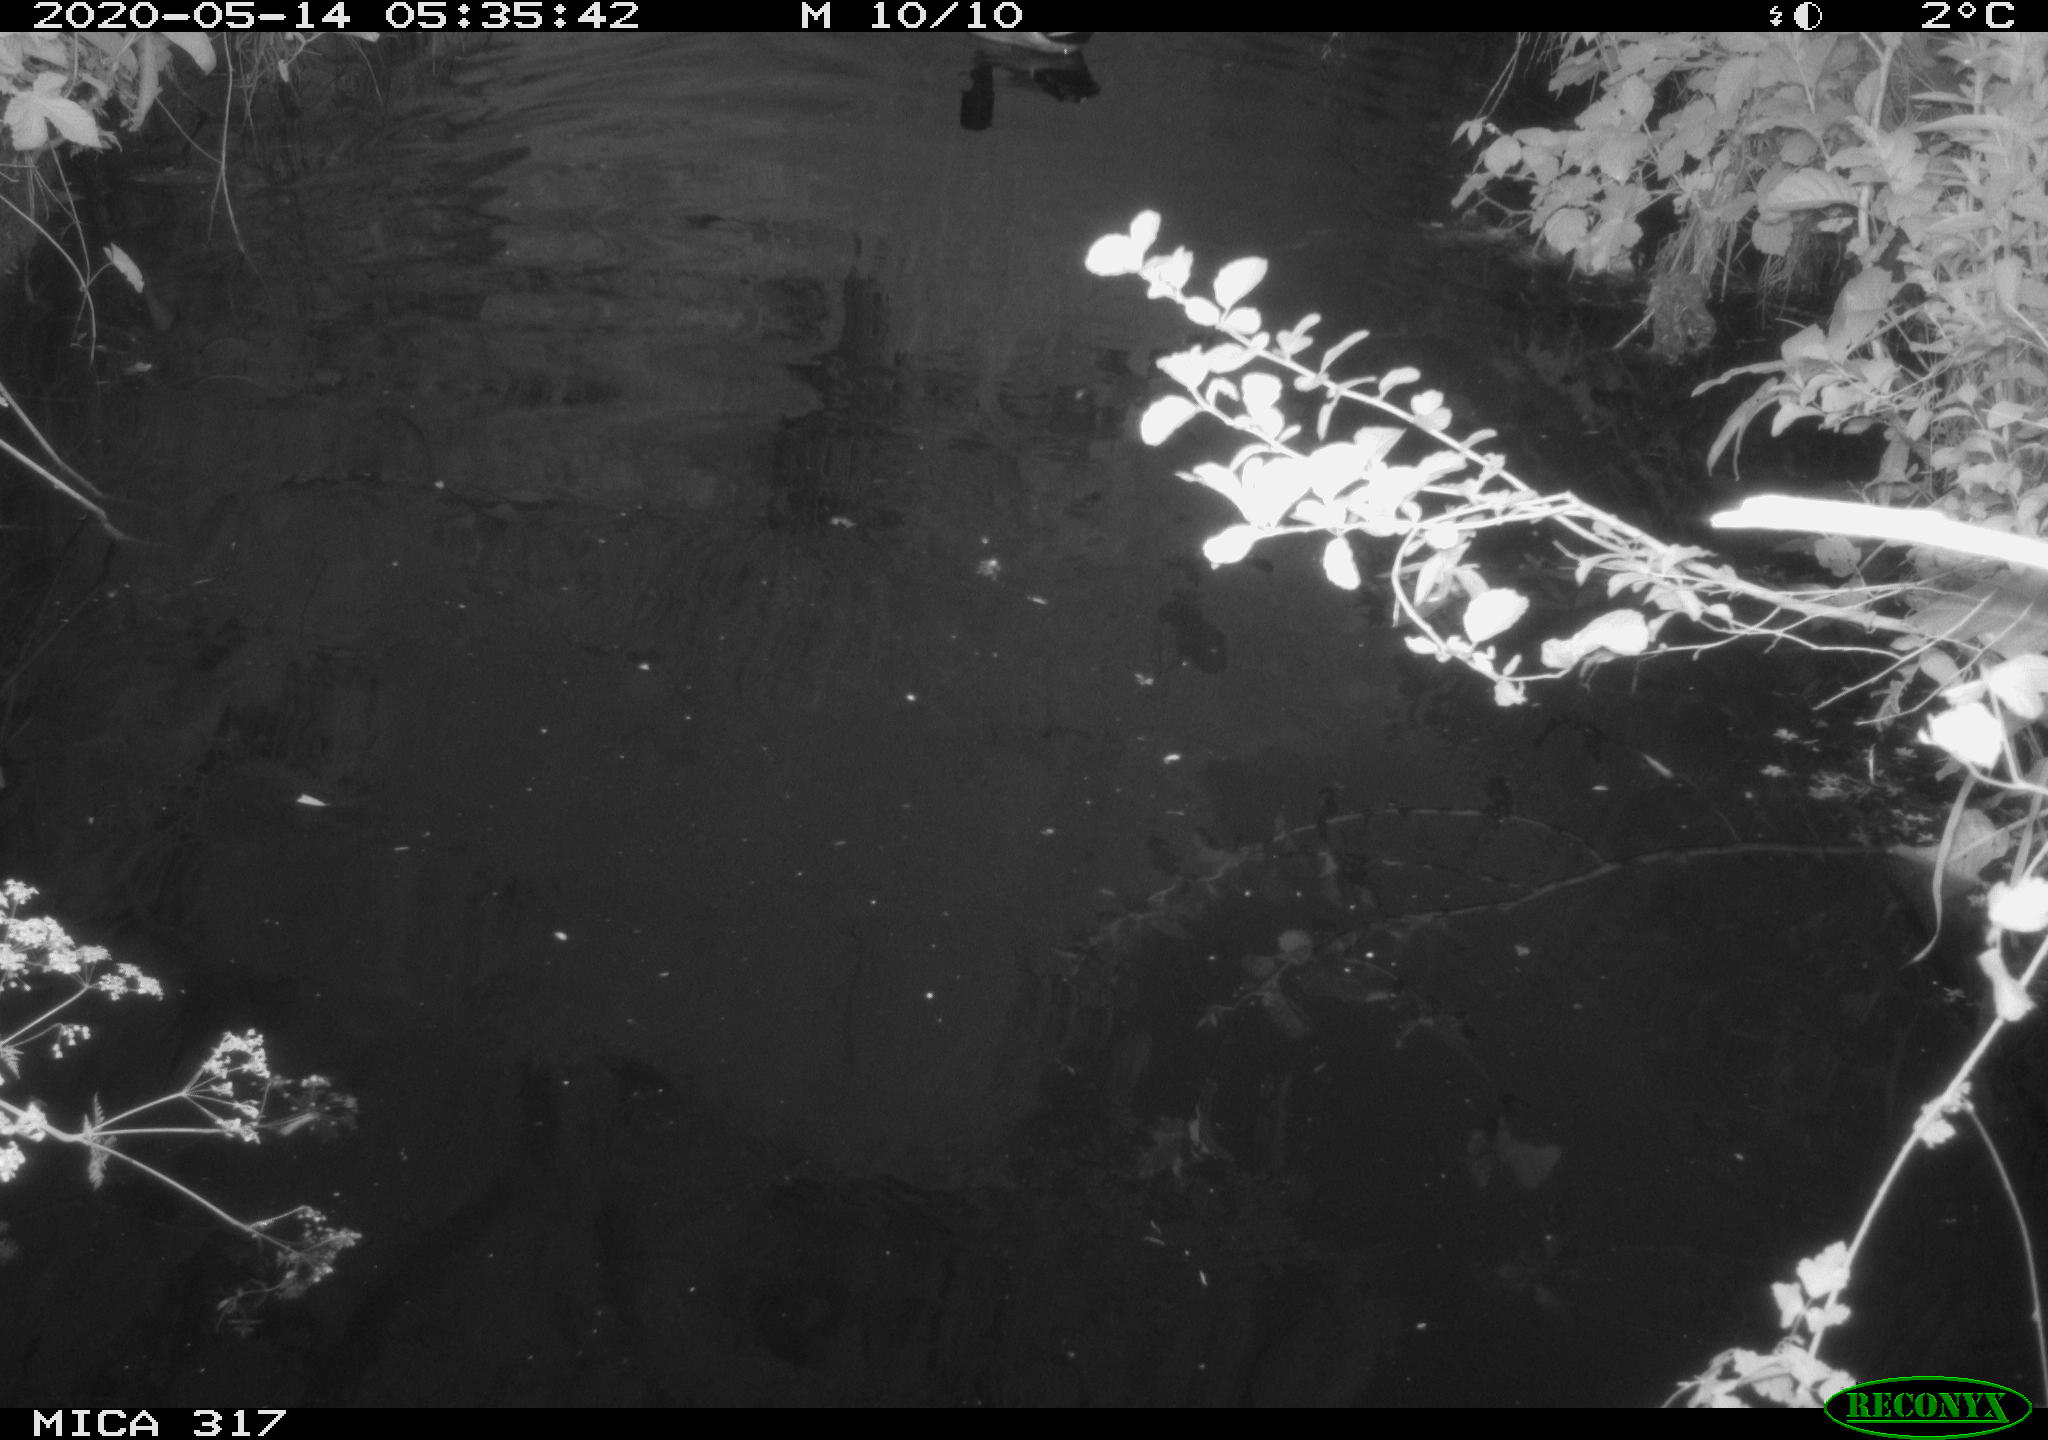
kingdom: Animalia
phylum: Chordata
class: Aves
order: Anseriformes
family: Anatidae
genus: Anas
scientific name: Anas platyrhynchos
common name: Mallard
